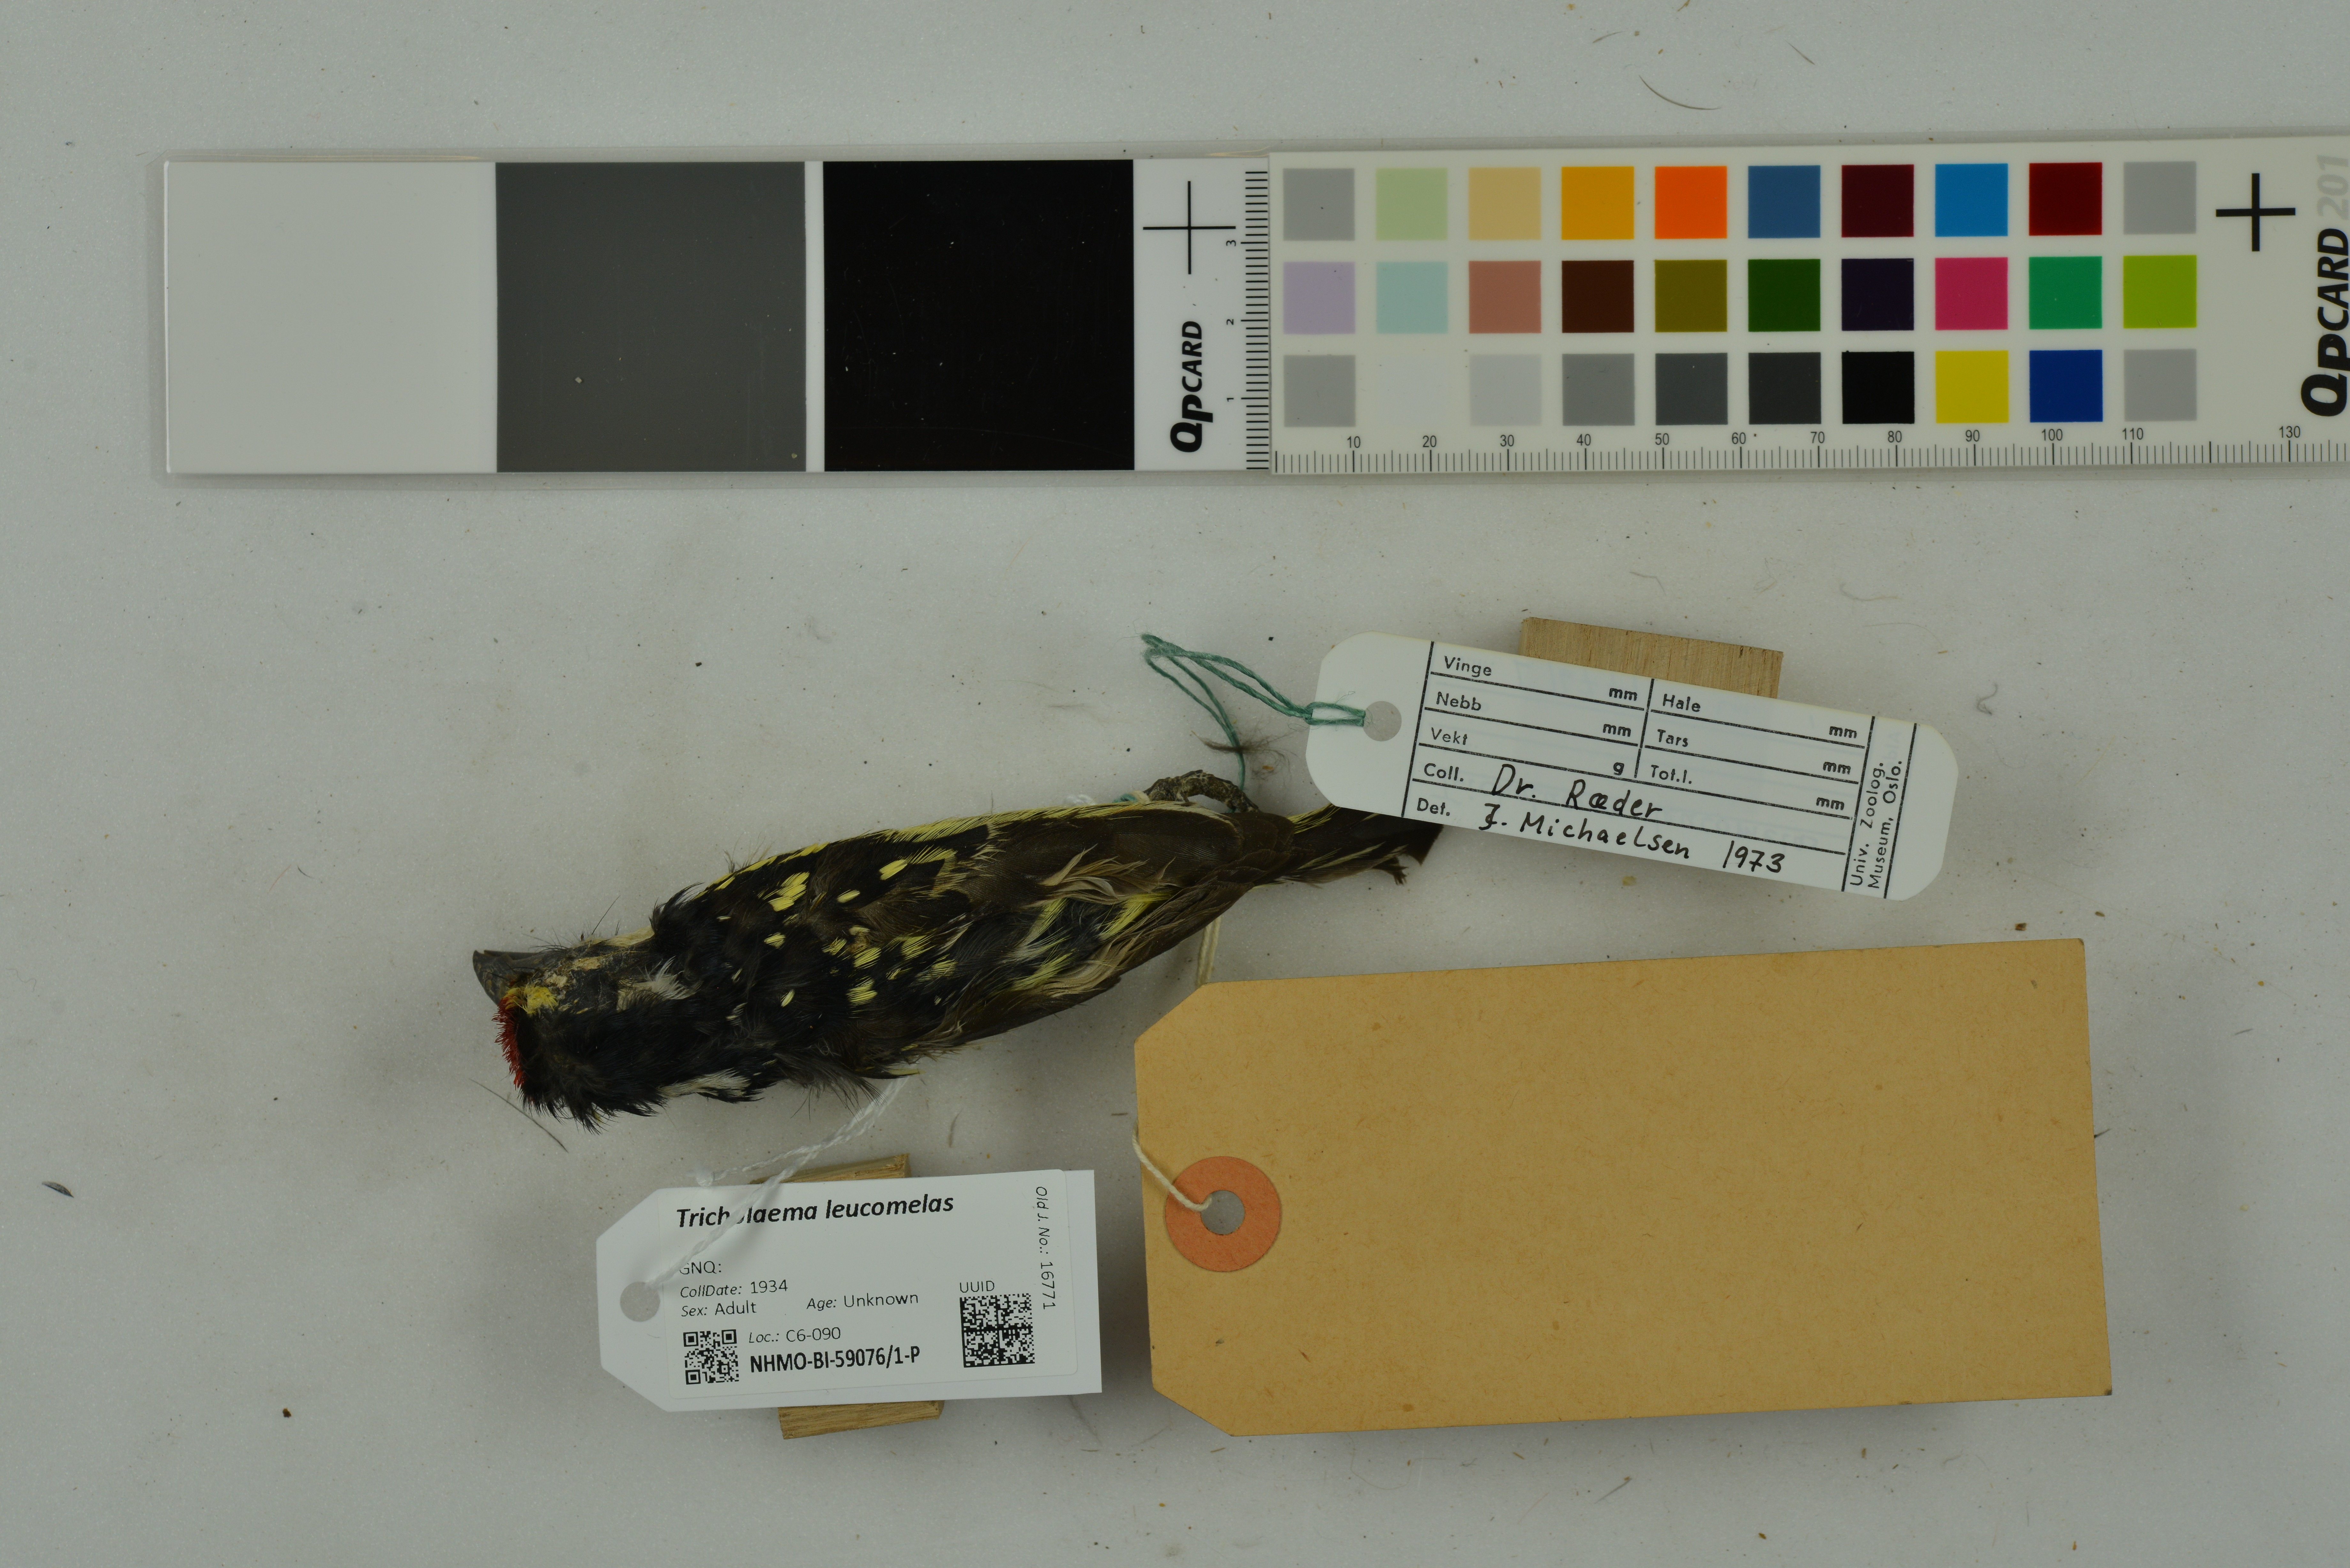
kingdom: Animalia
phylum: Chordata
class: Aves
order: Piciformes
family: Lybiidae
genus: Tricholaema
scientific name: Tricholaema leucomelas
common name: Acacia pied barbet
